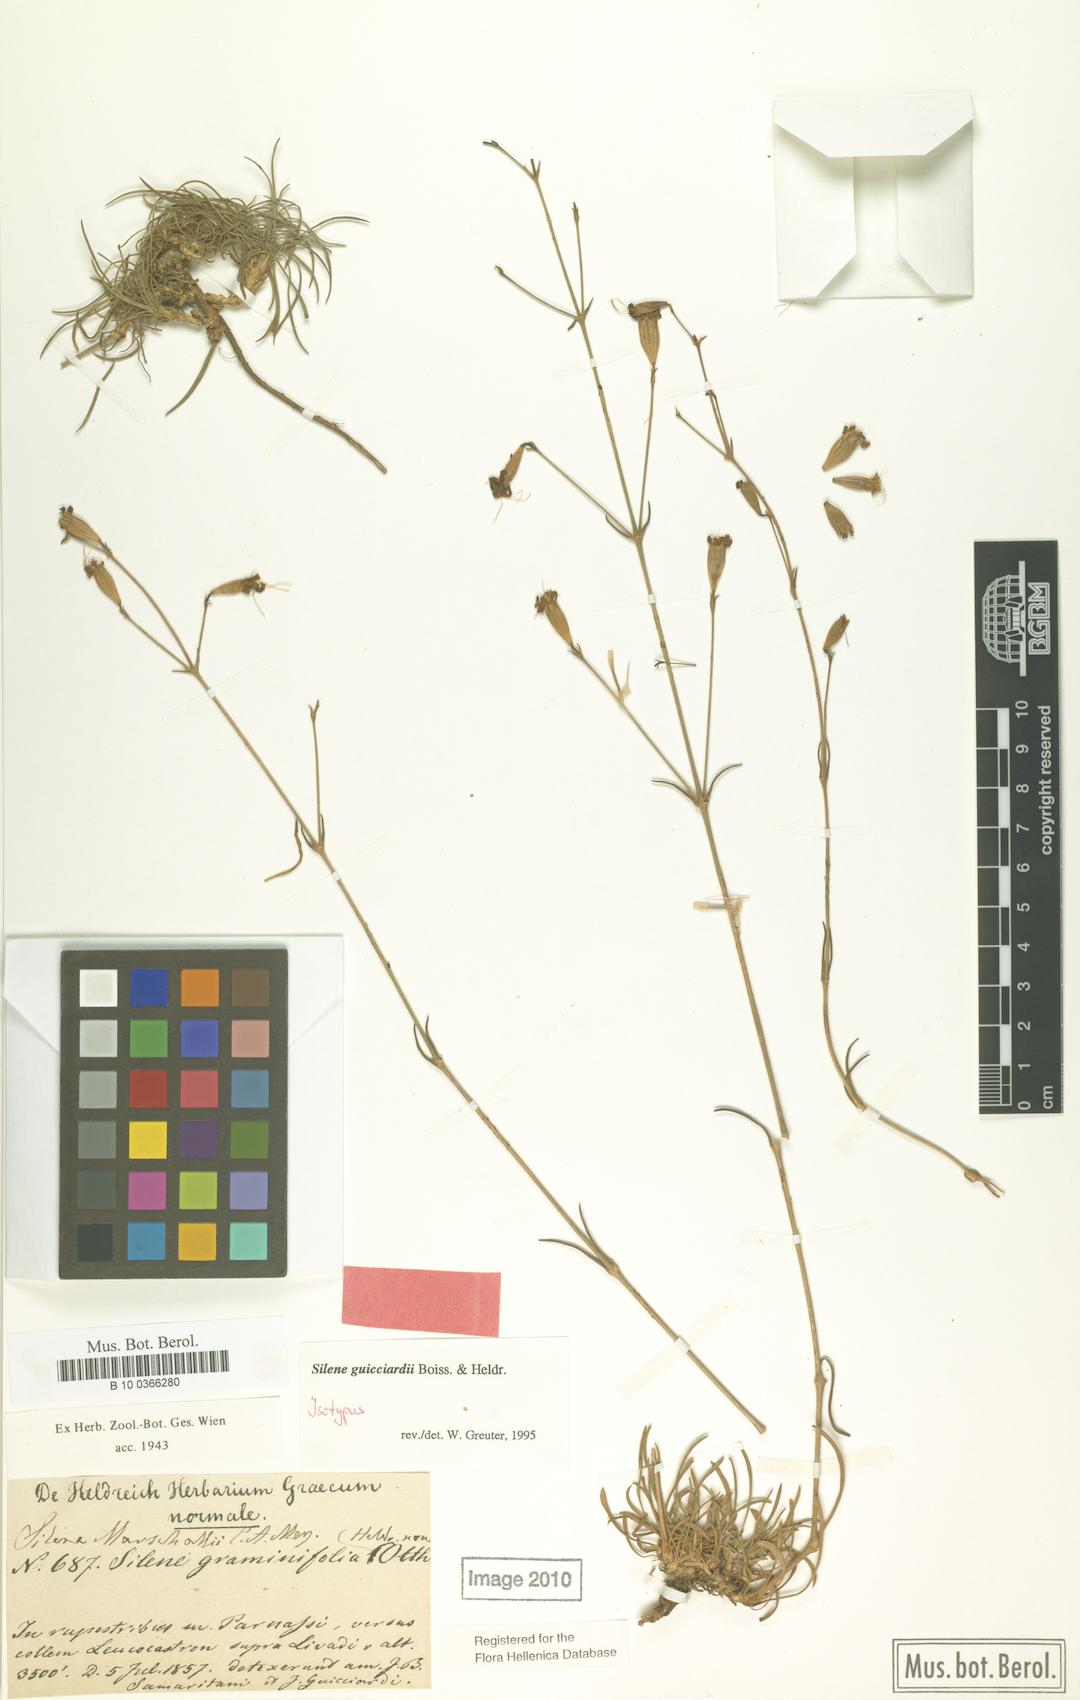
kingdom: Plantae
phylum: Tracheophyta
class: Magnoliopsida
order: Caryophyllales
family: Caryophyllaceae
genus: Silene
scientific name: Silene marschallii
